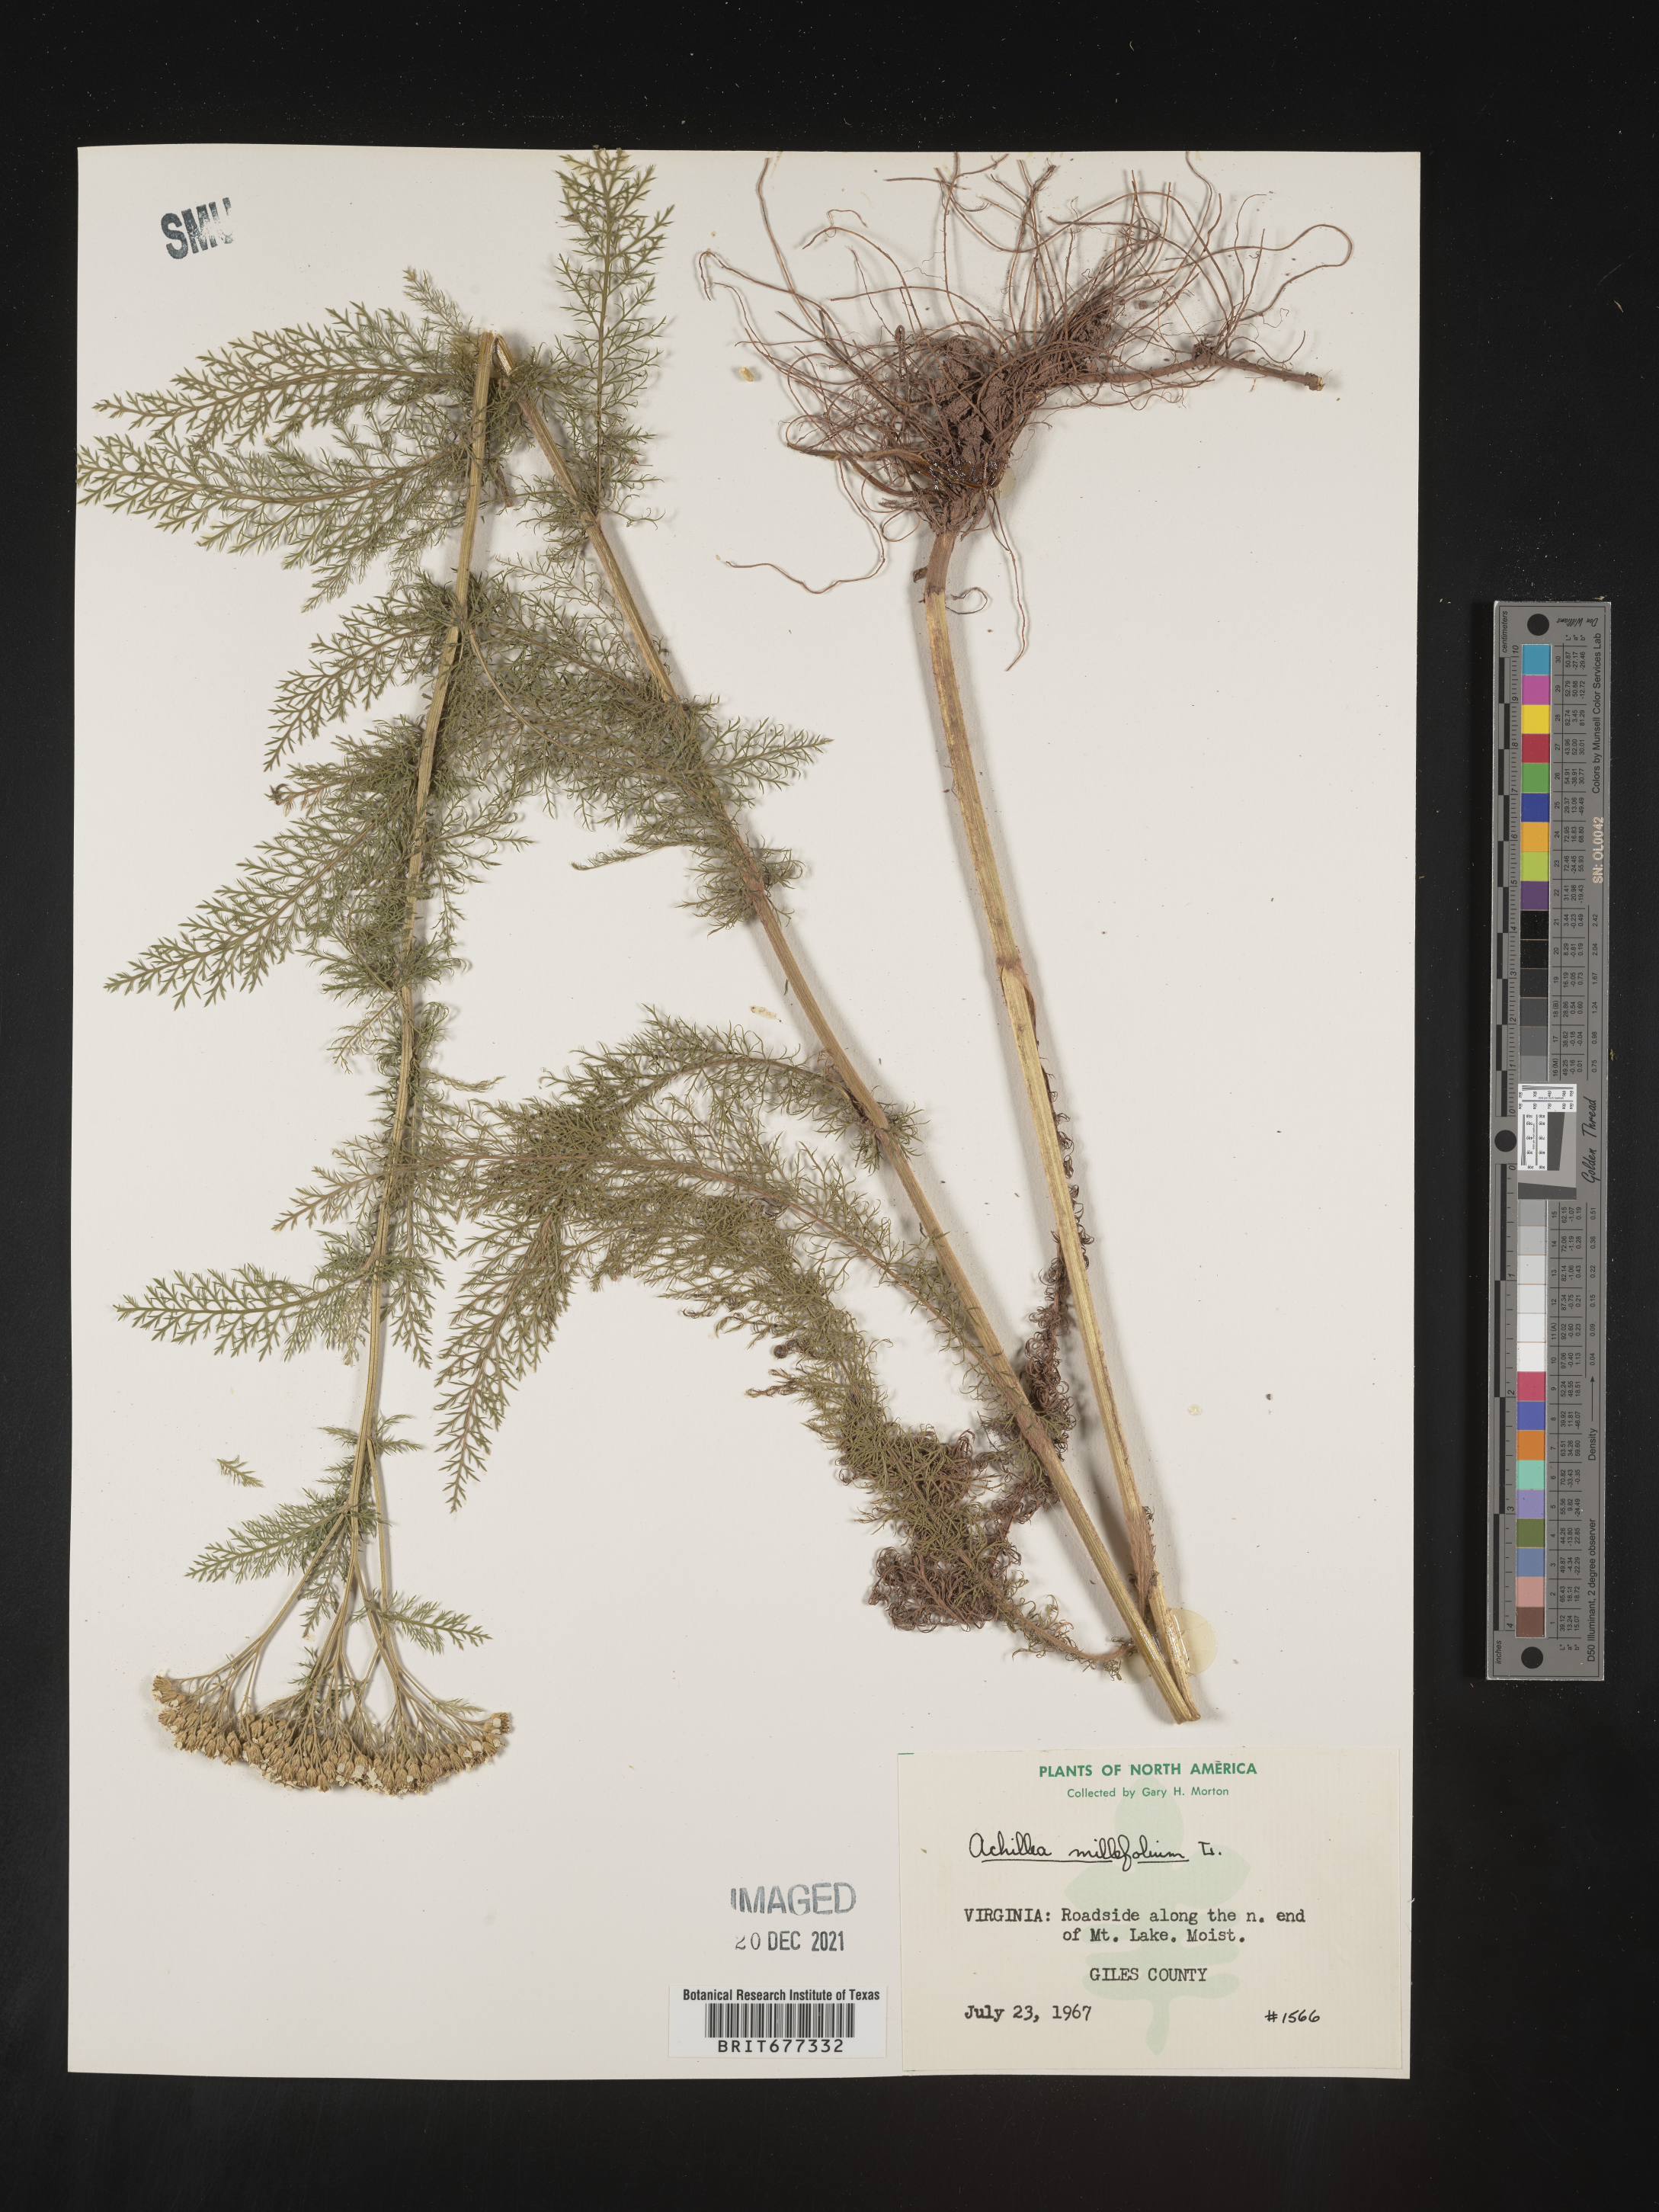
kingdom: Plantae
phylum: Tracheophyta
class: Magnoliopsida
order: Asterales
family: Asteraceae
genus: Achillea
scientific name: Achillea millefolium
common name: Yarrow
